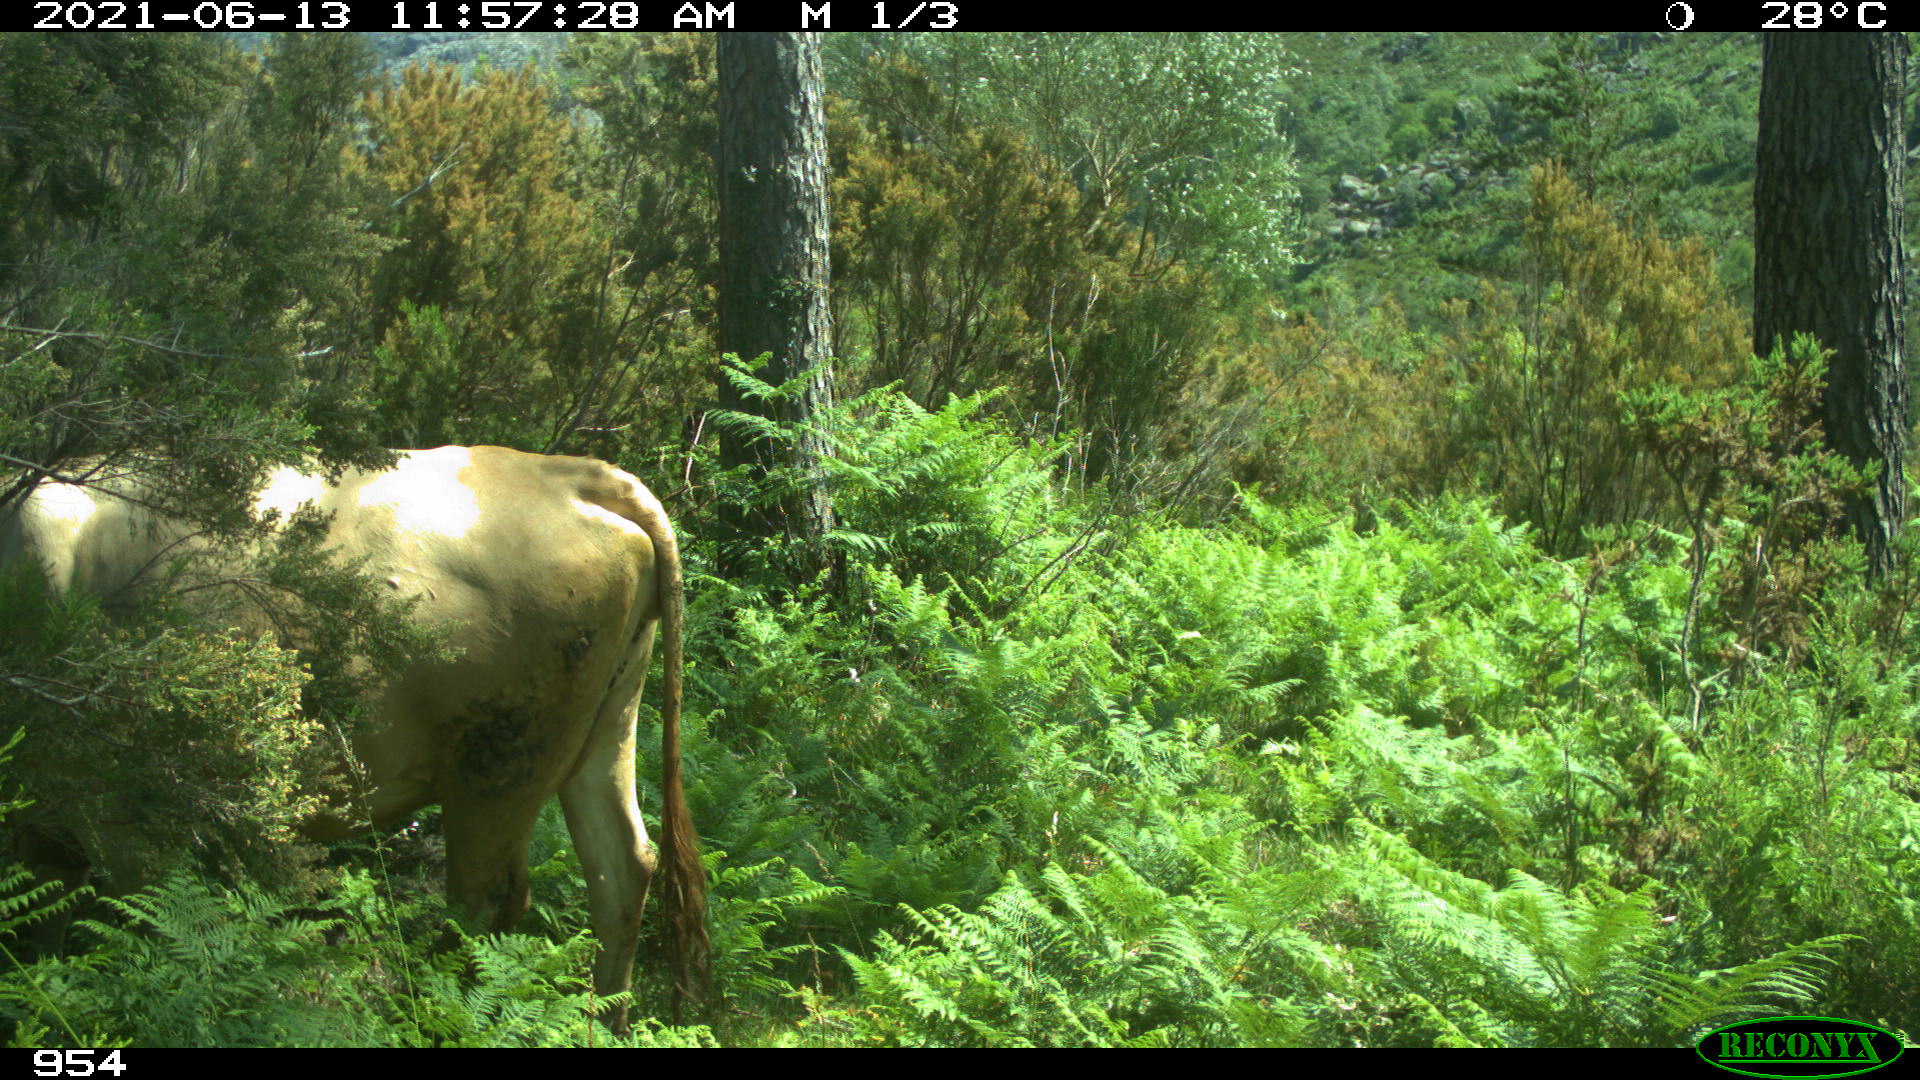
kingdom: Animalia
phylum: Chordata
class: Mammalia
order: Artiodactyla
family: Bovidae
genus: Bos
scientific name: Bos taurus
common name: Domesticated cattle
